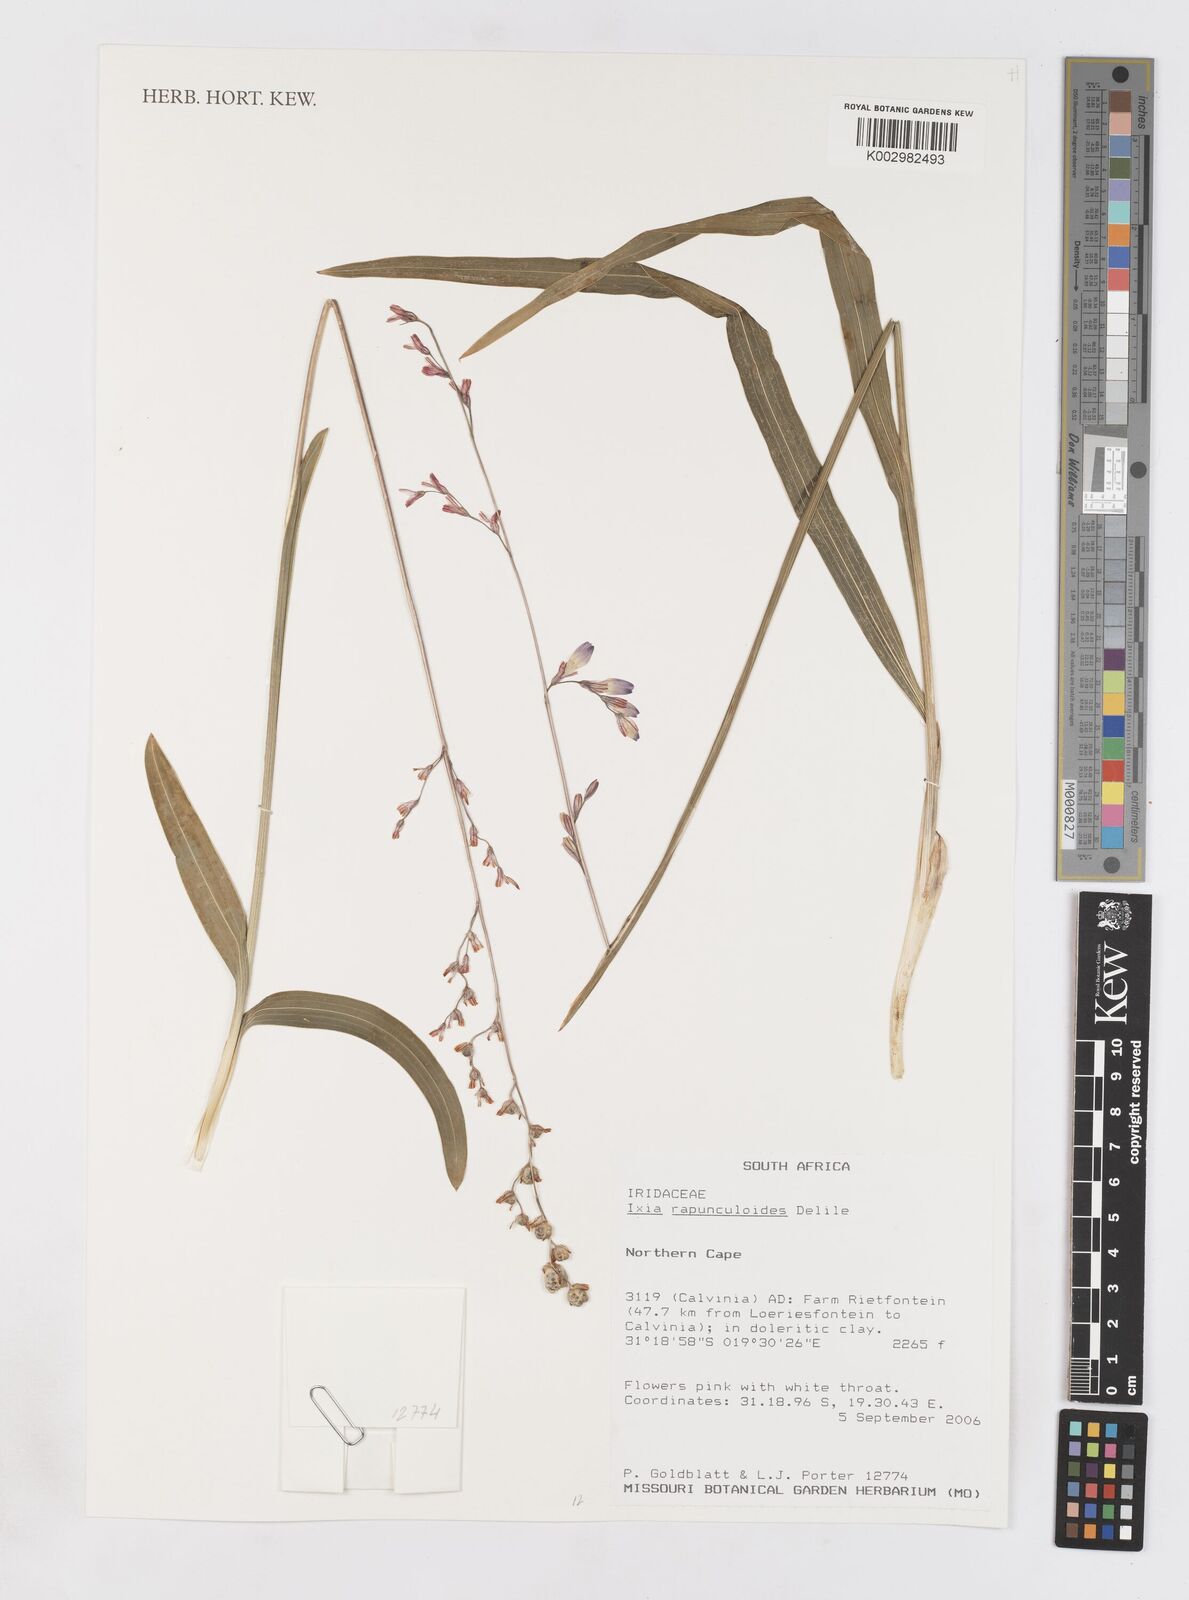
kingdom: Plantae
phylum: Tracheophyta
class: Liliopsida
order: Asparagales
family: Iridaceae
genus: Ixia
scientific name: Ixia rapunculoides
